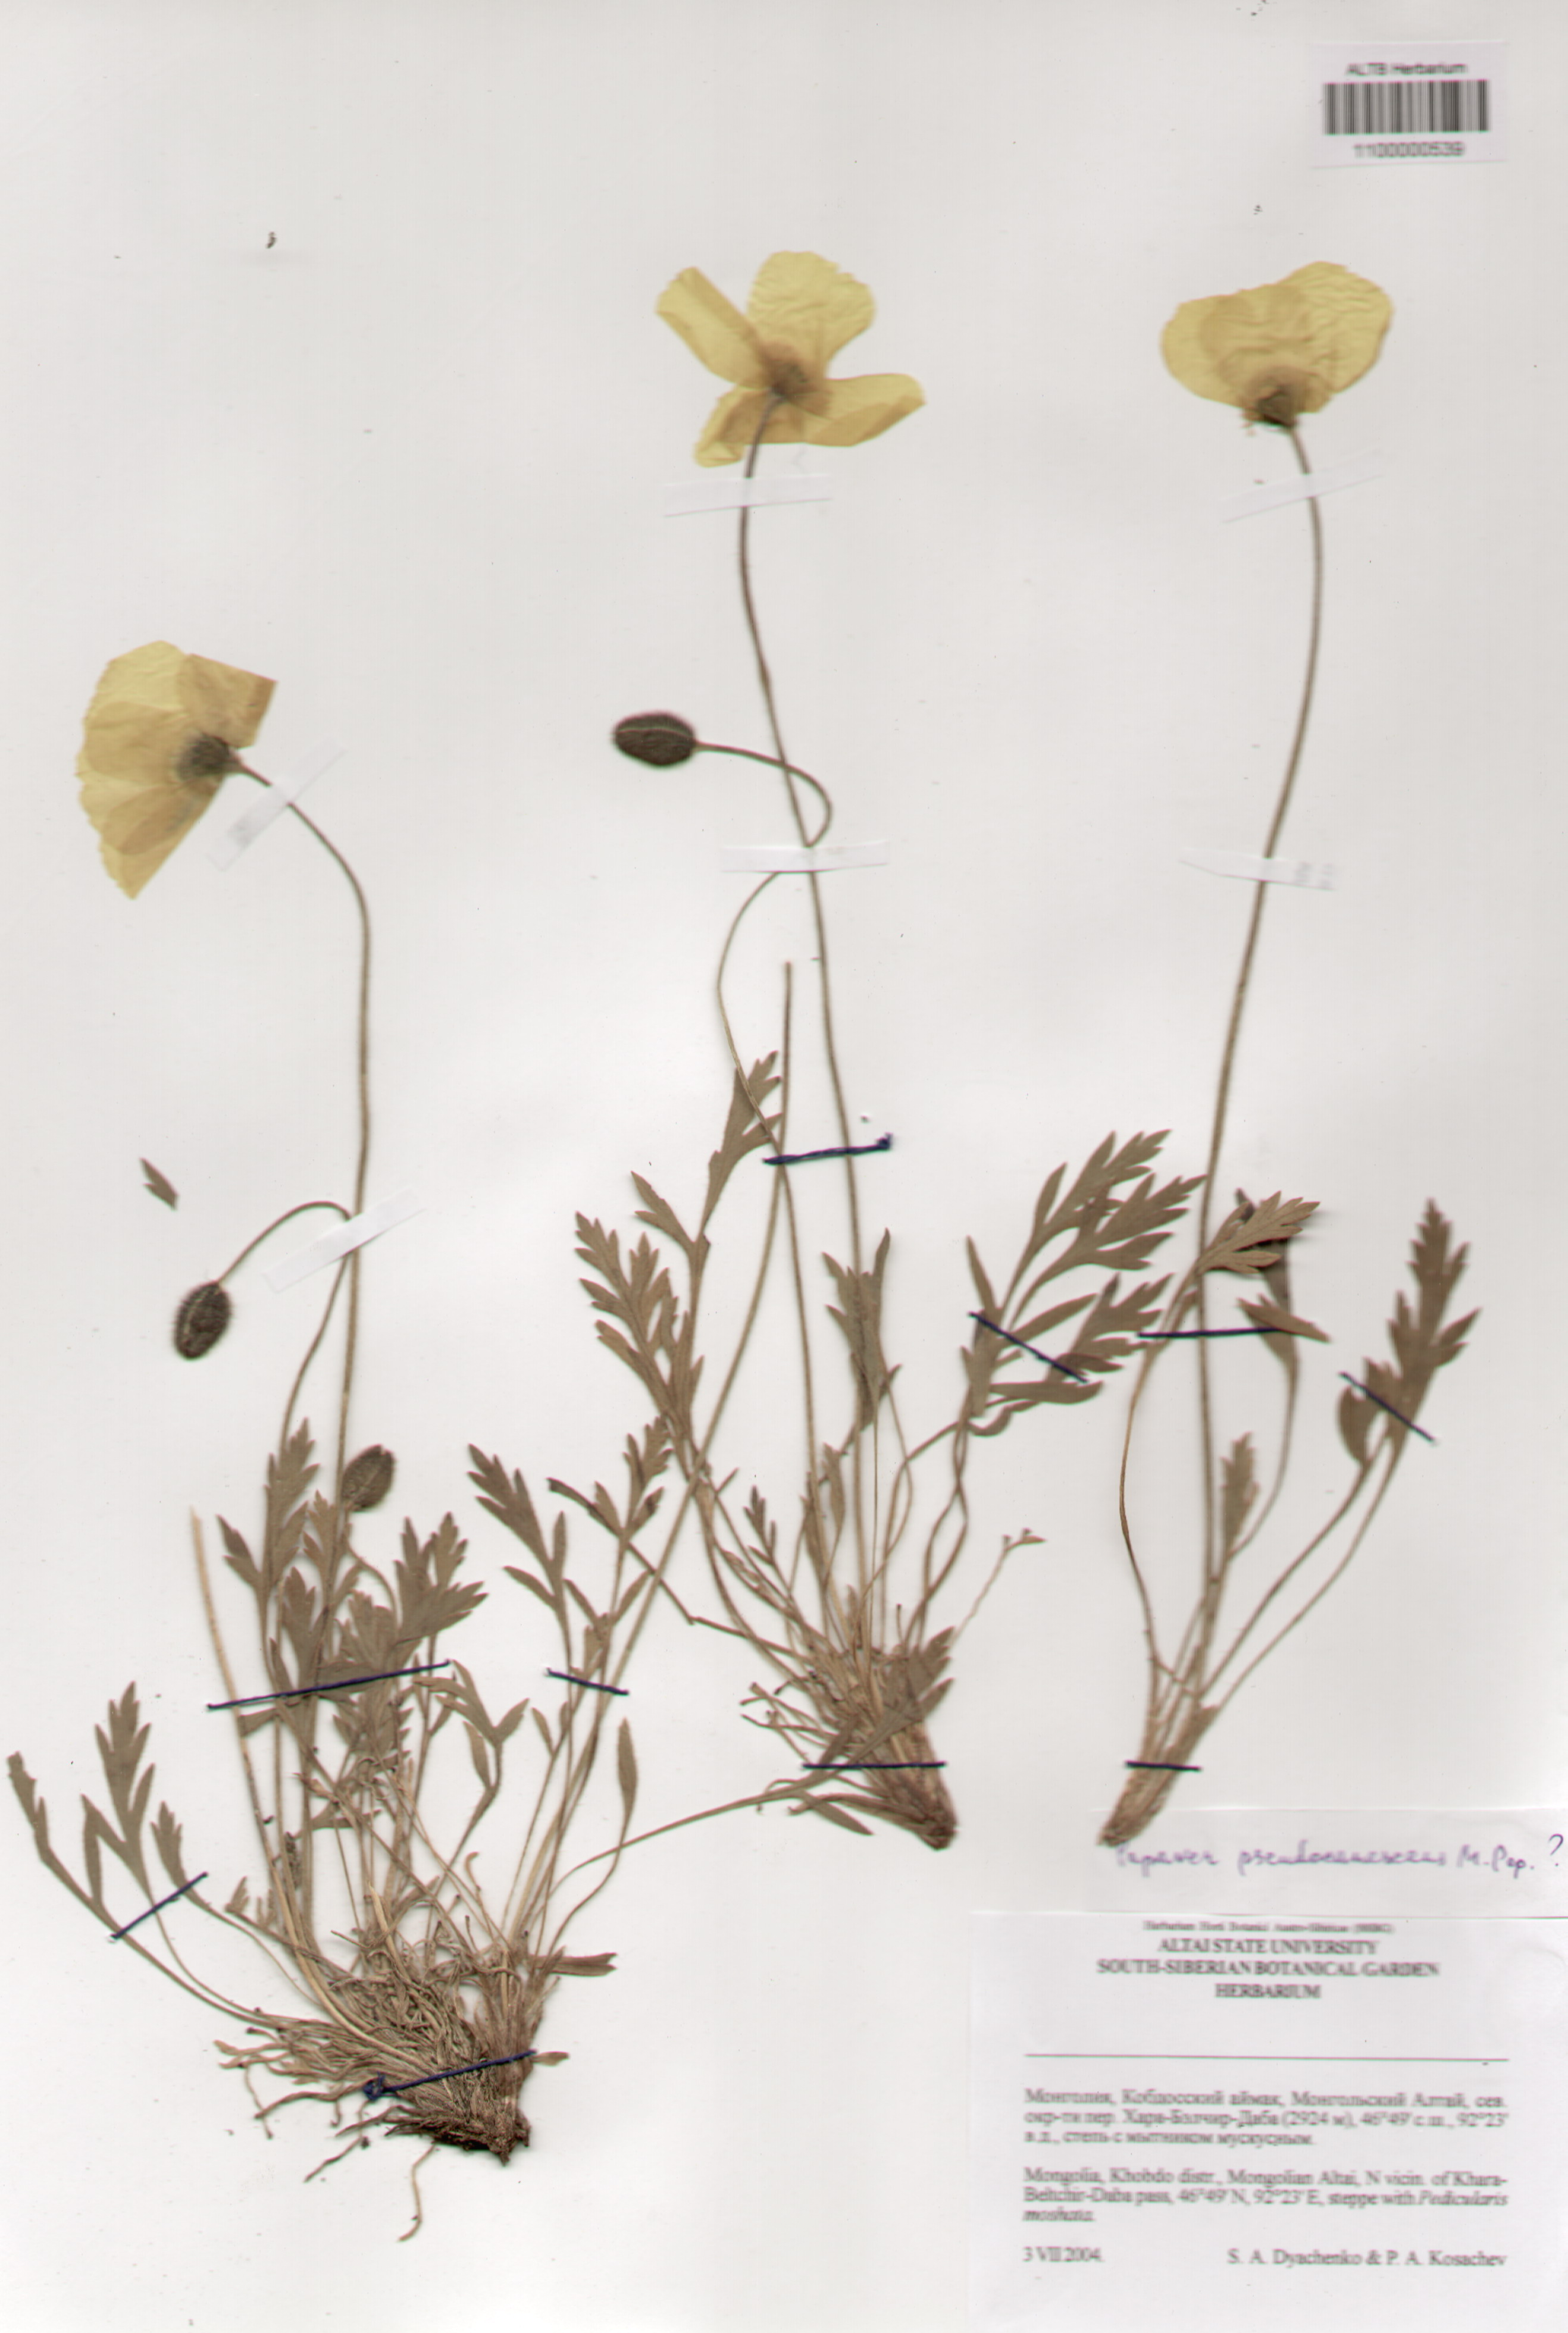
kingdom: Plantae
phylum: Tracheophyta
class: Magnoliopsida
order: Ranunculales
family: Papaveraceae
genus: Papaver
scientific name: Papaver canescens
